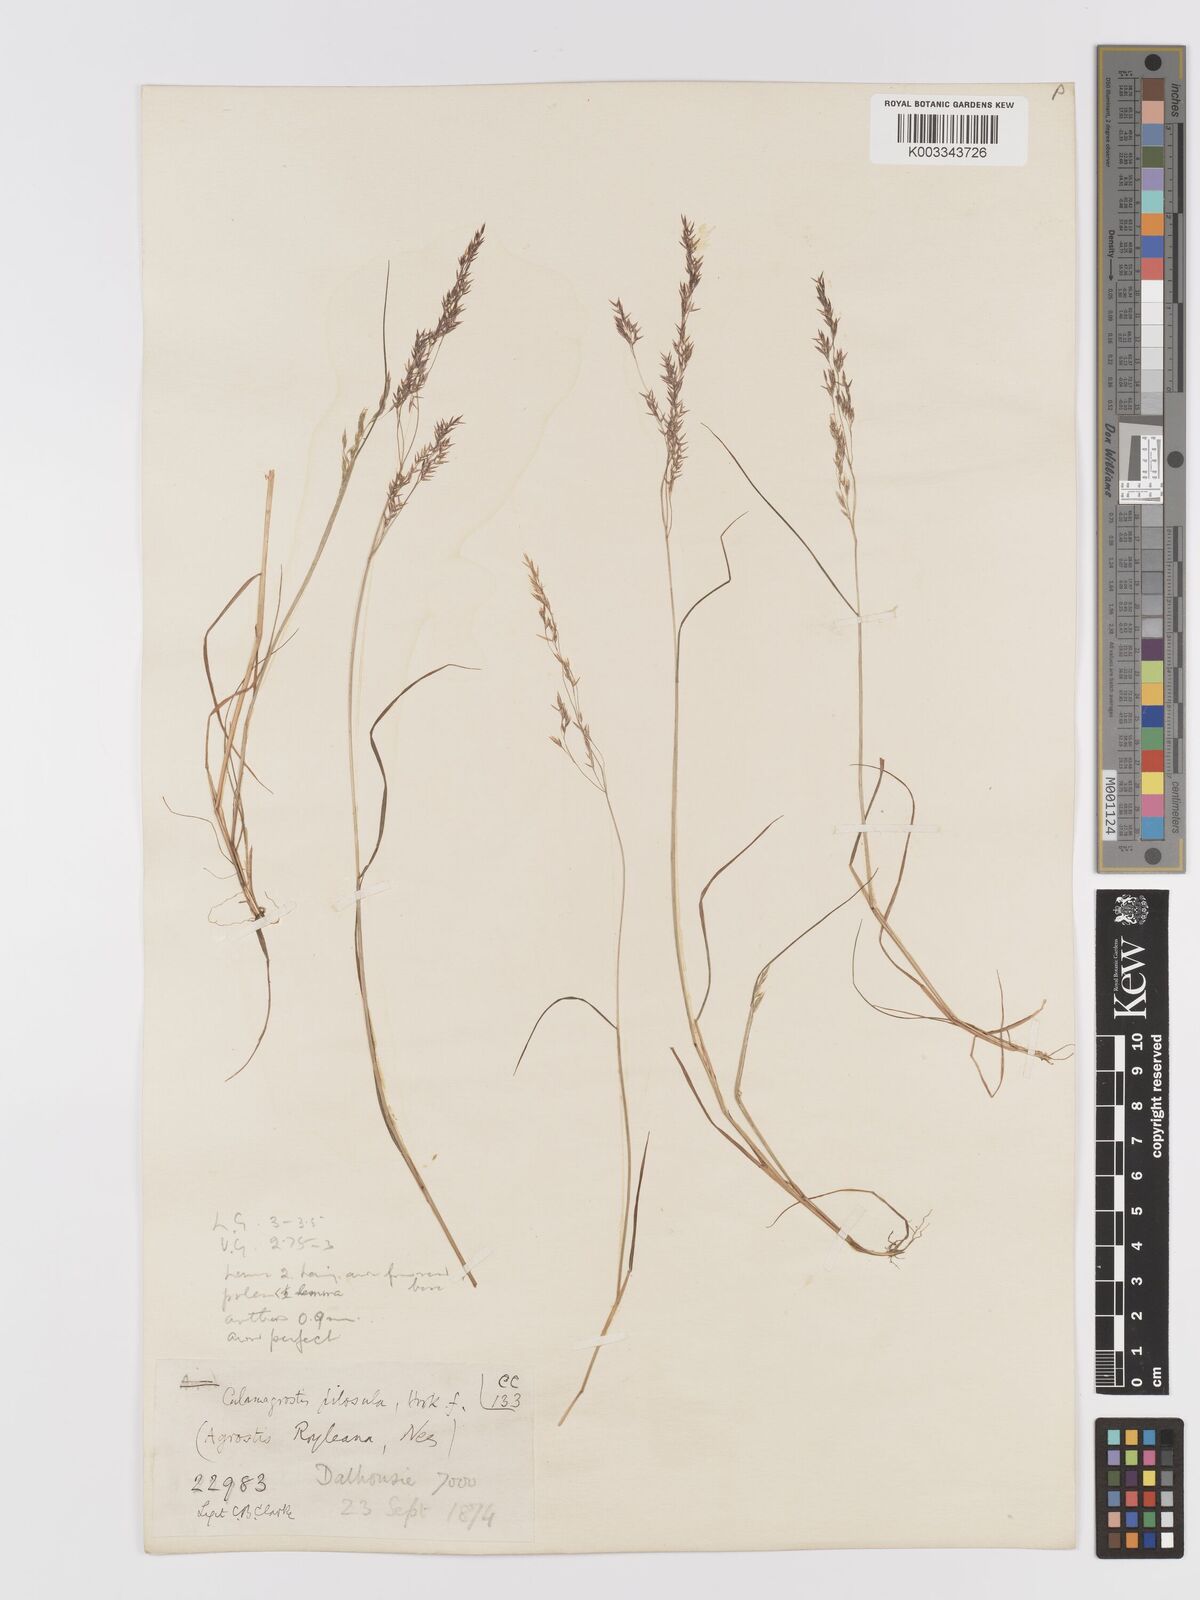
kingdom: Plantae
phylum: Tracheophyta
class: Liliopsida
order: Poales
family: Poaceae
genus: Agrostis
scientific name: Agrostis pilosula
